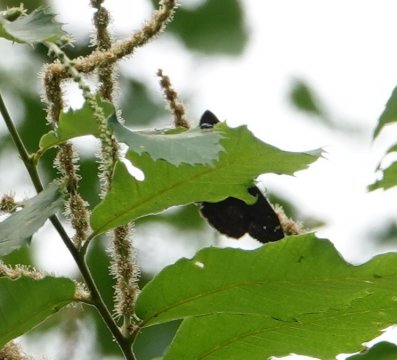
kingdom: Animalia
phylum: Arthropoda
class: Insecta
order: Lepidoptera
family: Hesperiidae
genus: Gesta
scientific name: Gesta
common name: Horace's Duskywing
